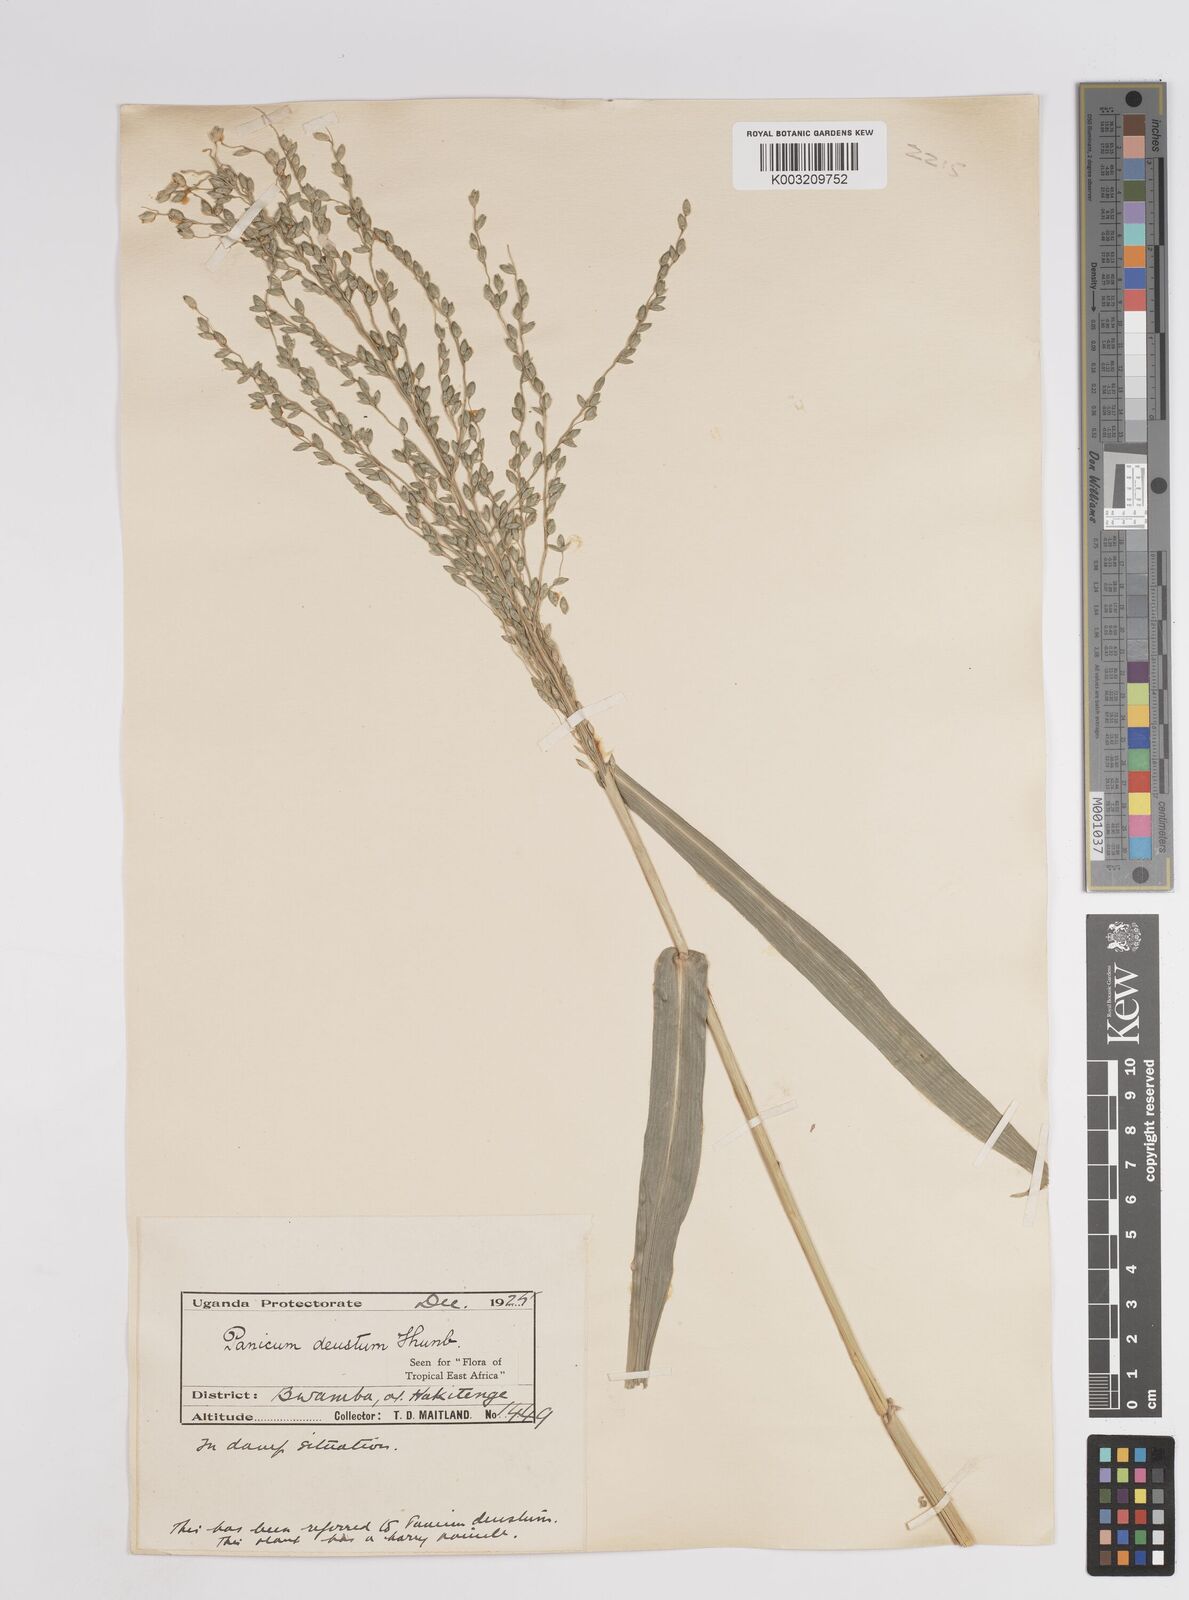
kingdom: Plantae
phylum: Tracheophyta
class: Liliopsida
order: Poales
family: Poaceae
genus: Panicum
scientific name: Panicum
